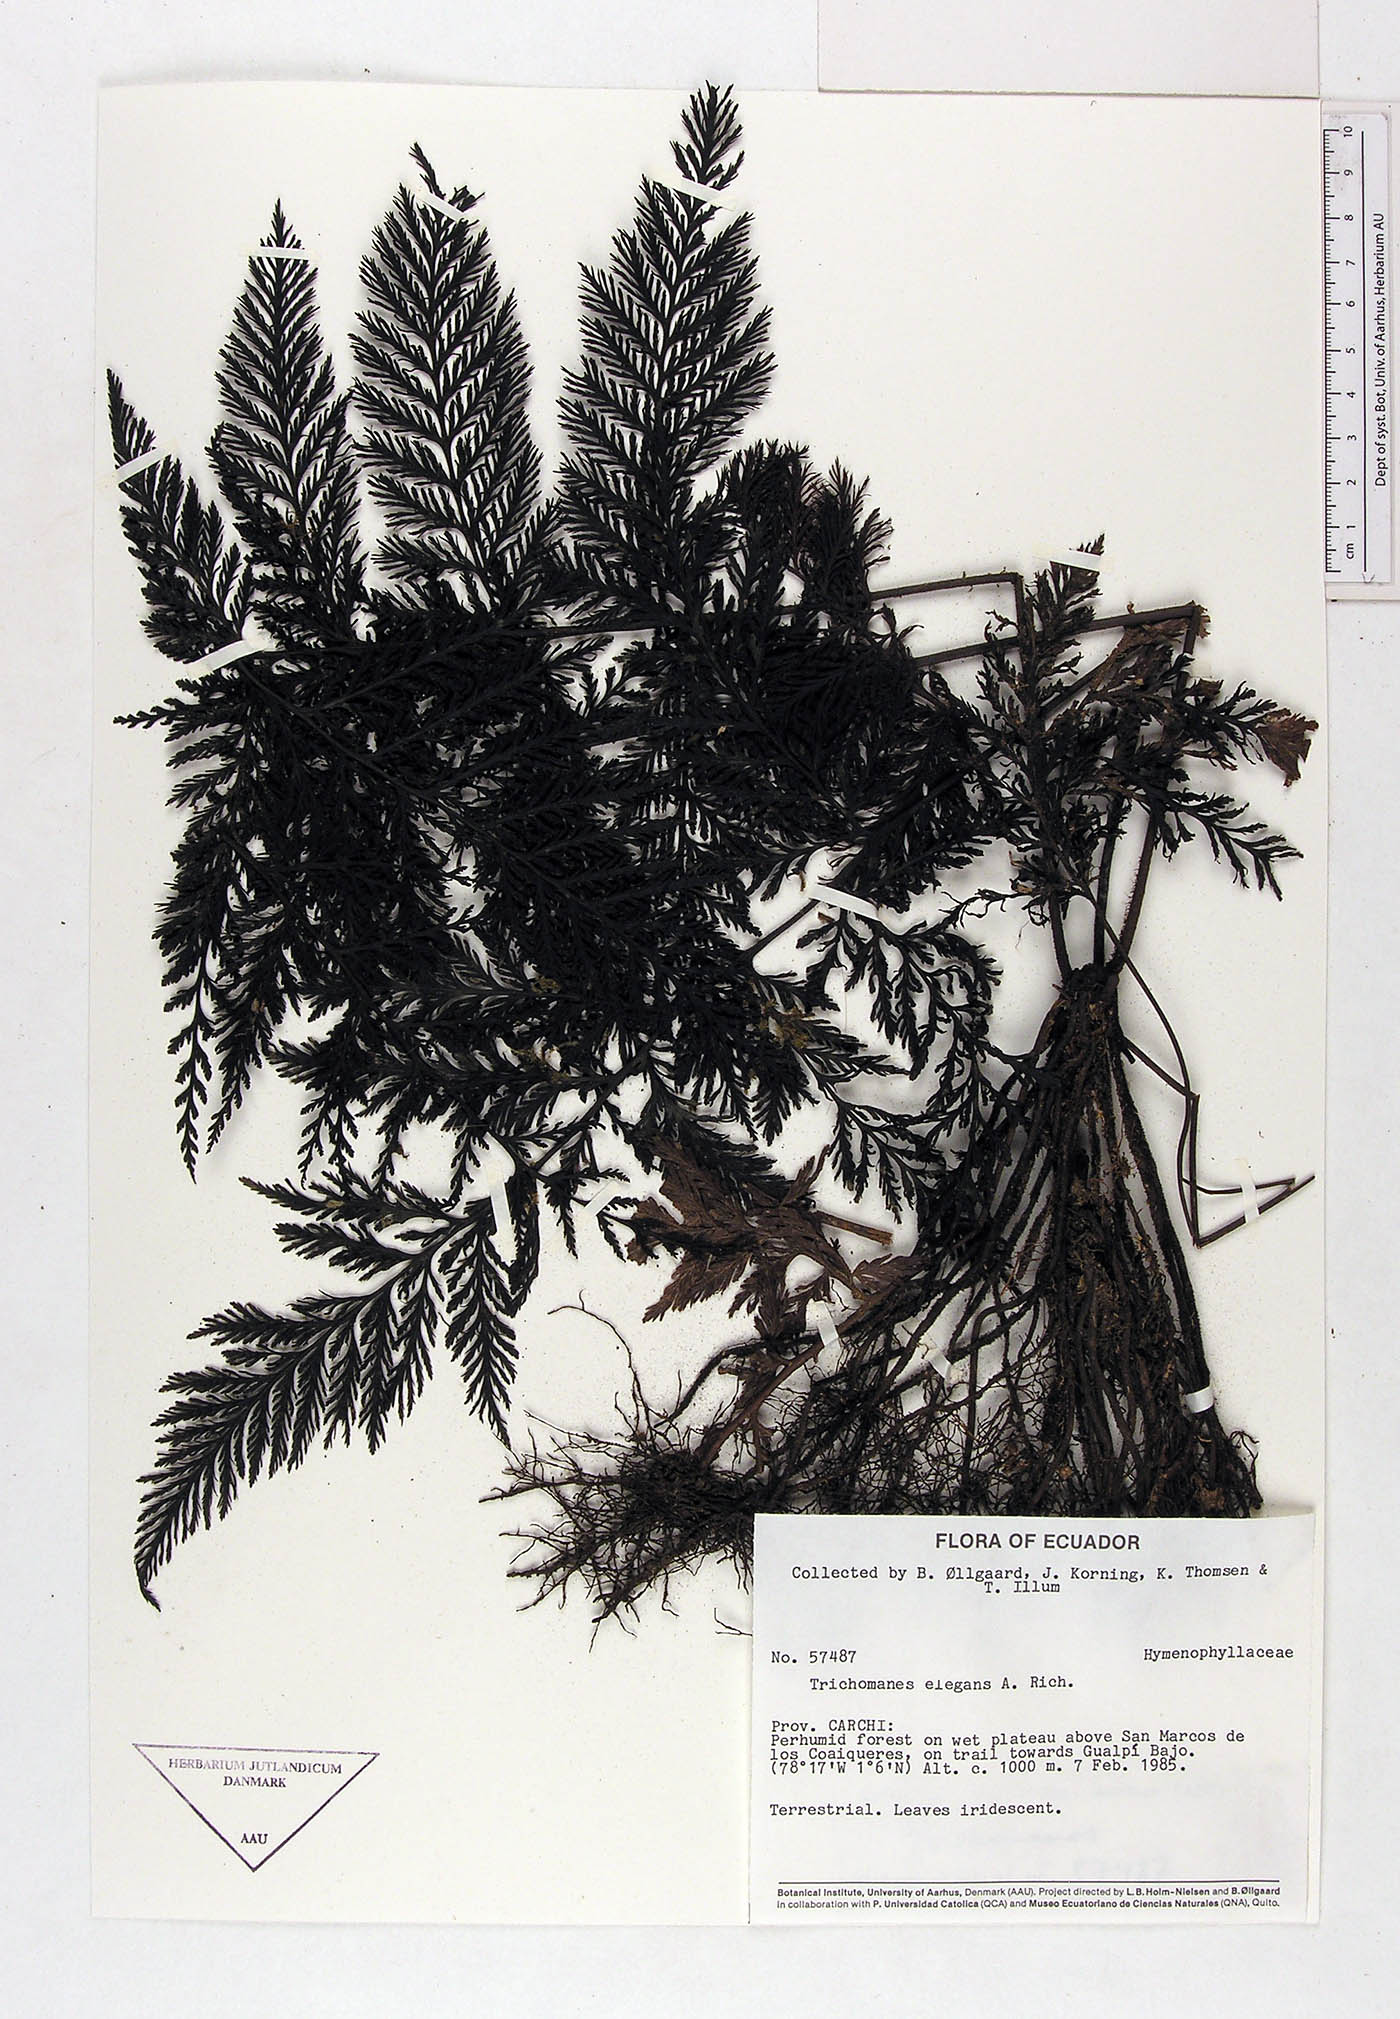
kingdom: Plantae
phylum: Tracheophyta
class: Polypodiopsida
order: Hymenophyllales
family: Hymenophyllaceae
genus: Trichomanes
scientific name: Trichomanes elegans
